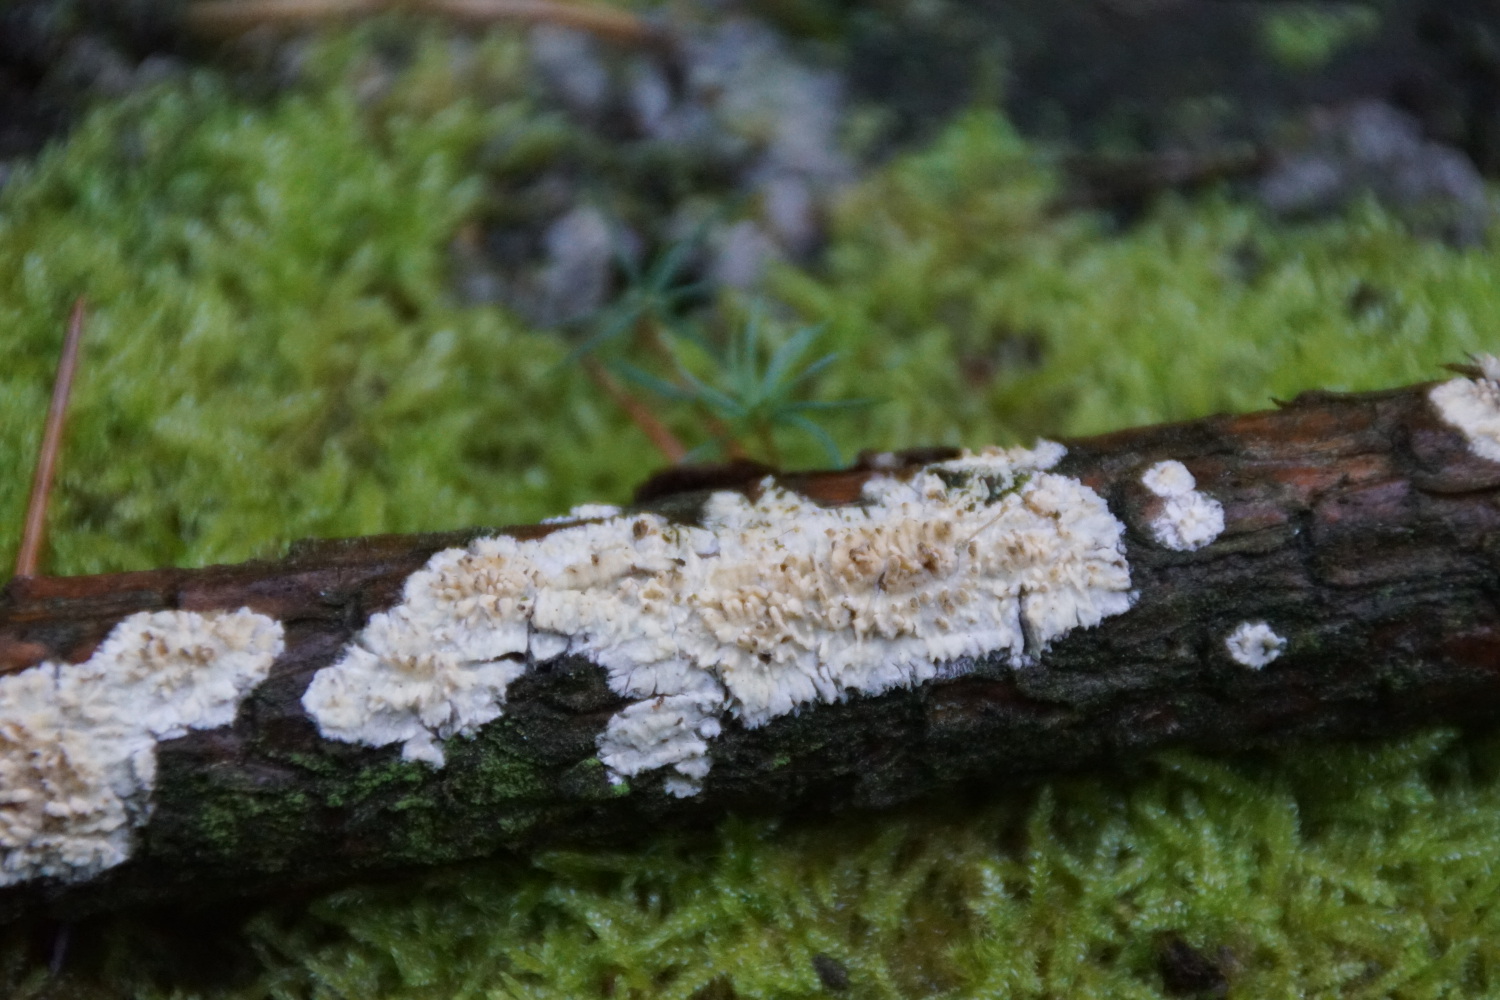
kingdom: Fungi
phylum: Basidiomycota
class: Agaricomycetes
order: Hymenochaetales
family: Schizoporaceae
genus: Xylodon
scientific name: Xylodon radula
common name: grovtandet kalkskind
